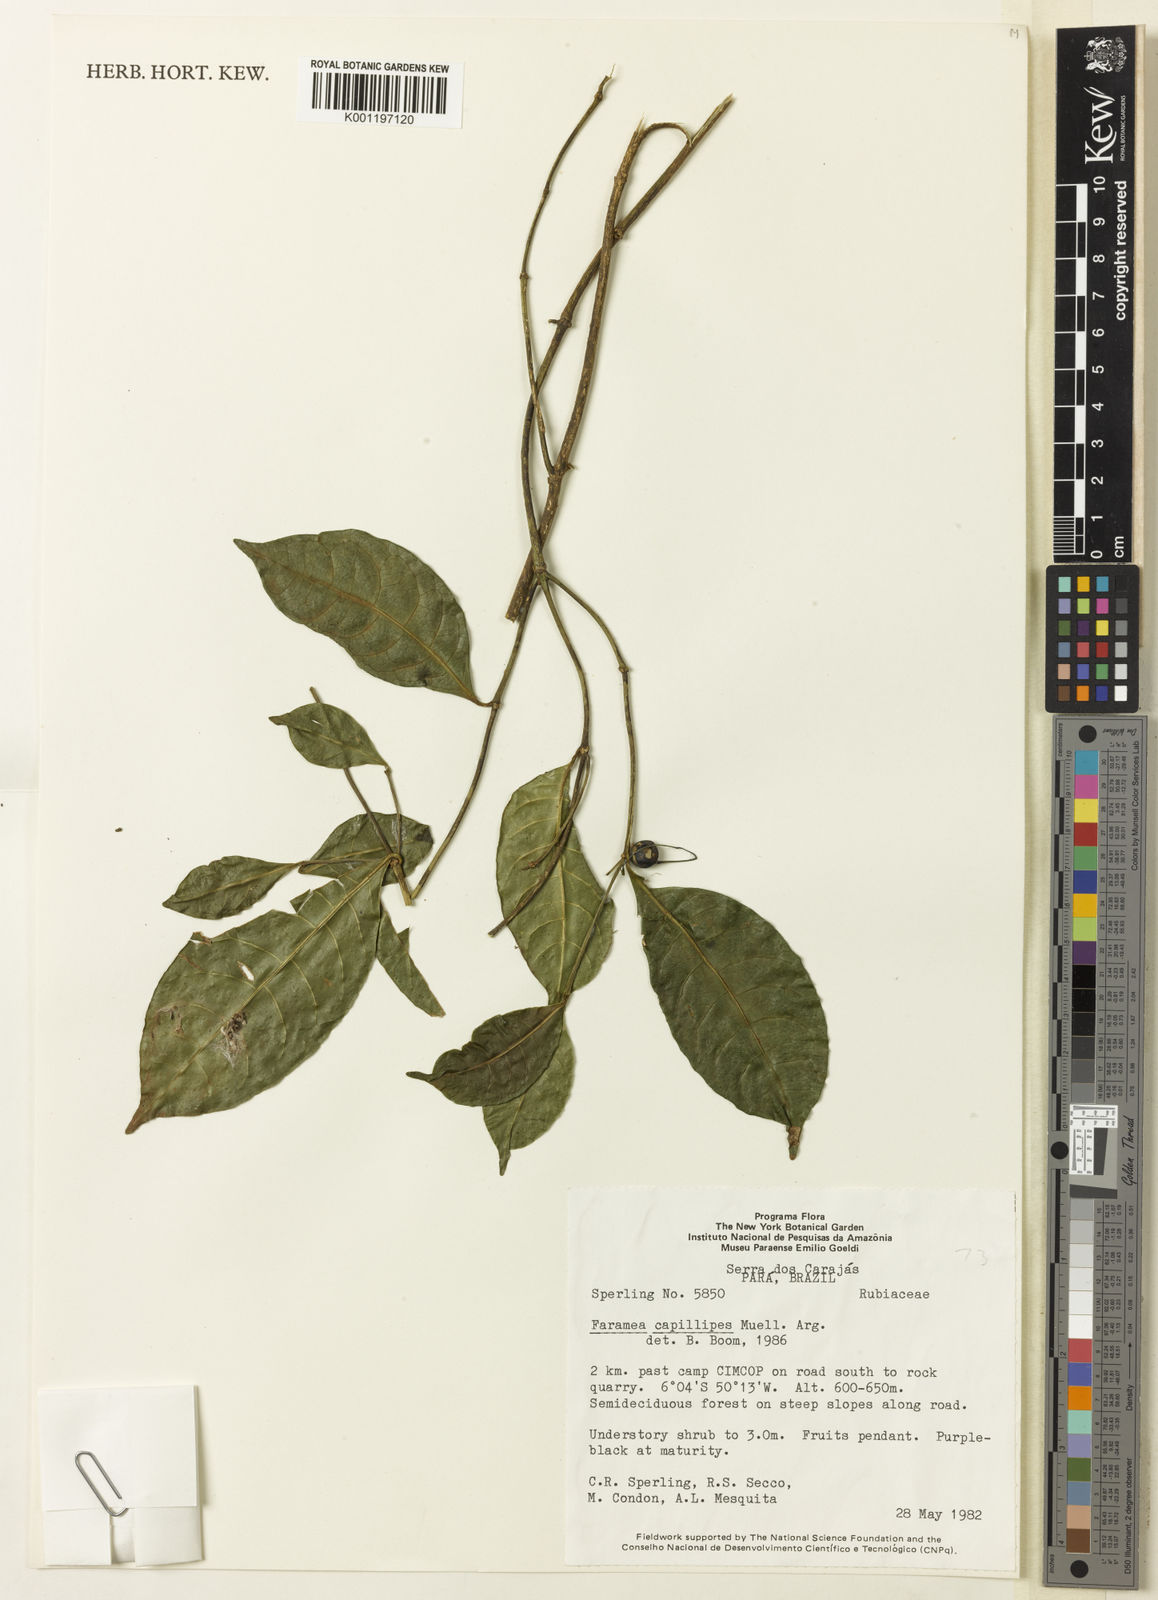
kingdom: Plantae
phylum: Tracheophyta
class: Magnoliopsida
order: Gentianales
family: Rubiaceae
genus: Faramea
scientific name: Faramea
